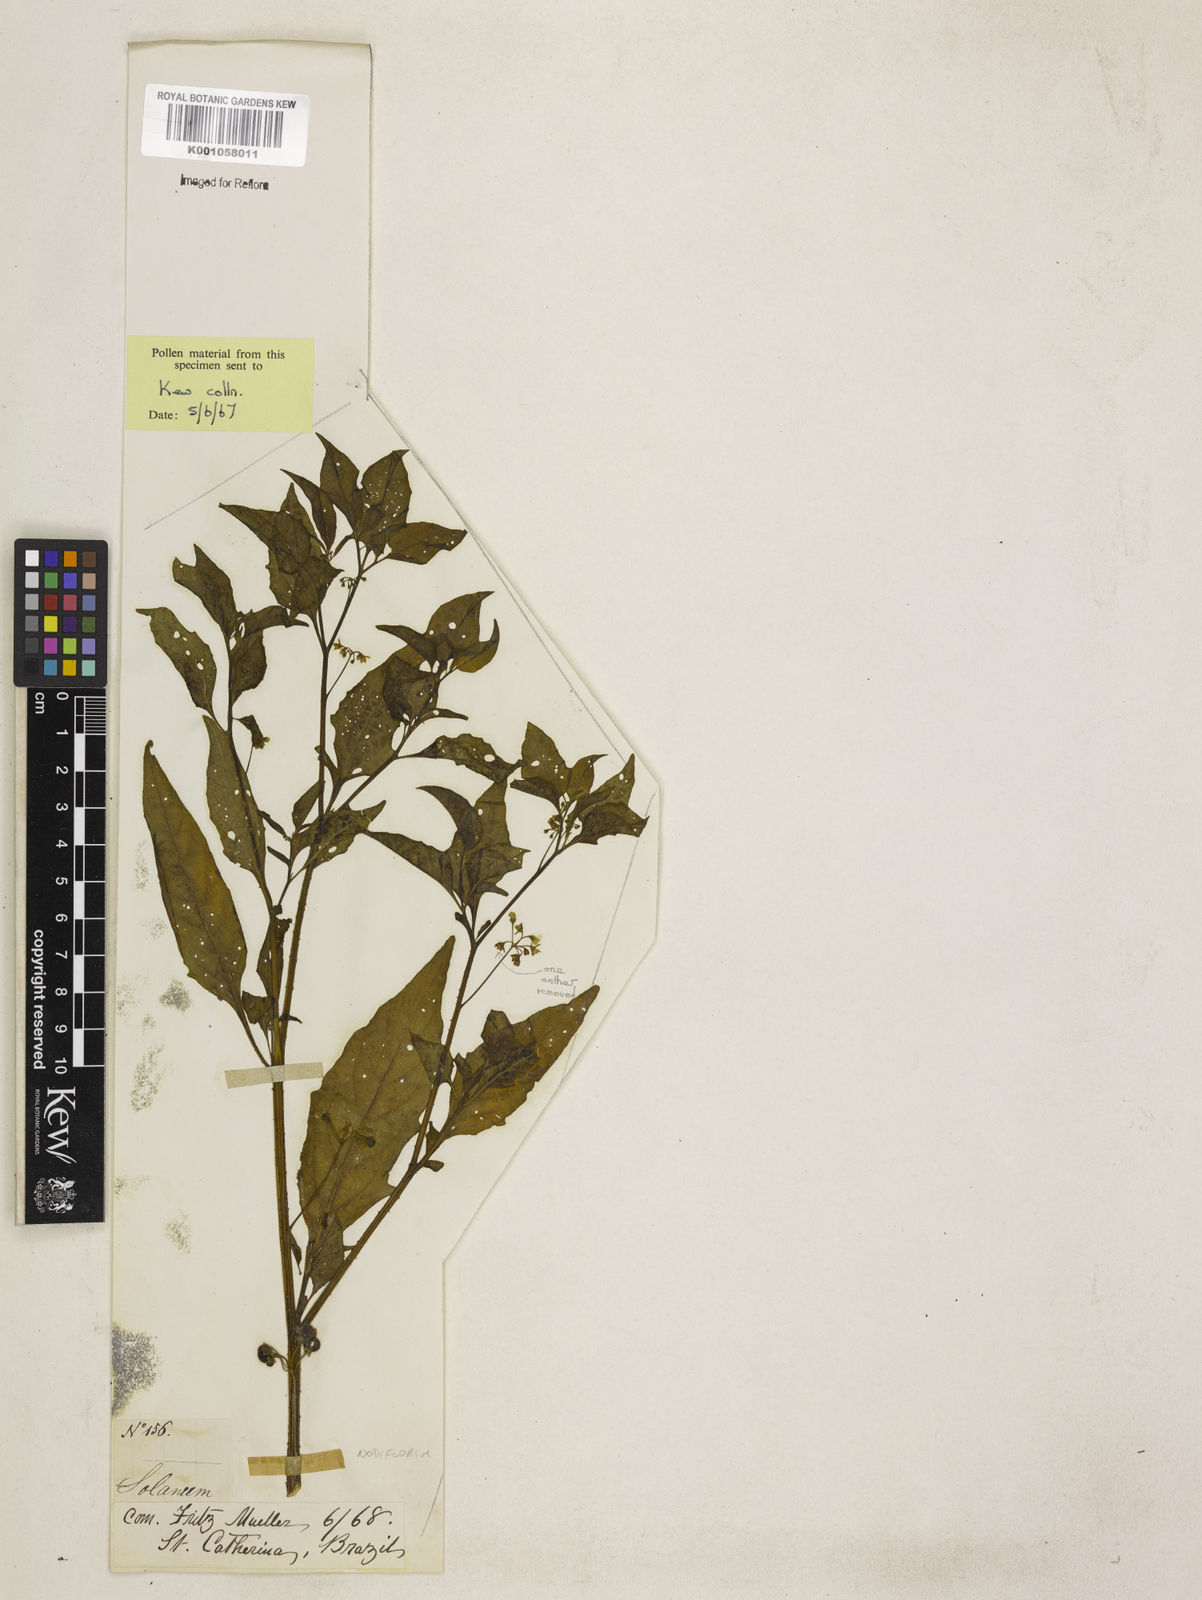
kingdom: Plantae
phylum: Tracheophyta
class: Magnoliopsida
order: Solanales
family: Solanaceae
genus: Solanum
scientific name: Solanum americanum
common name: American black nightshade
